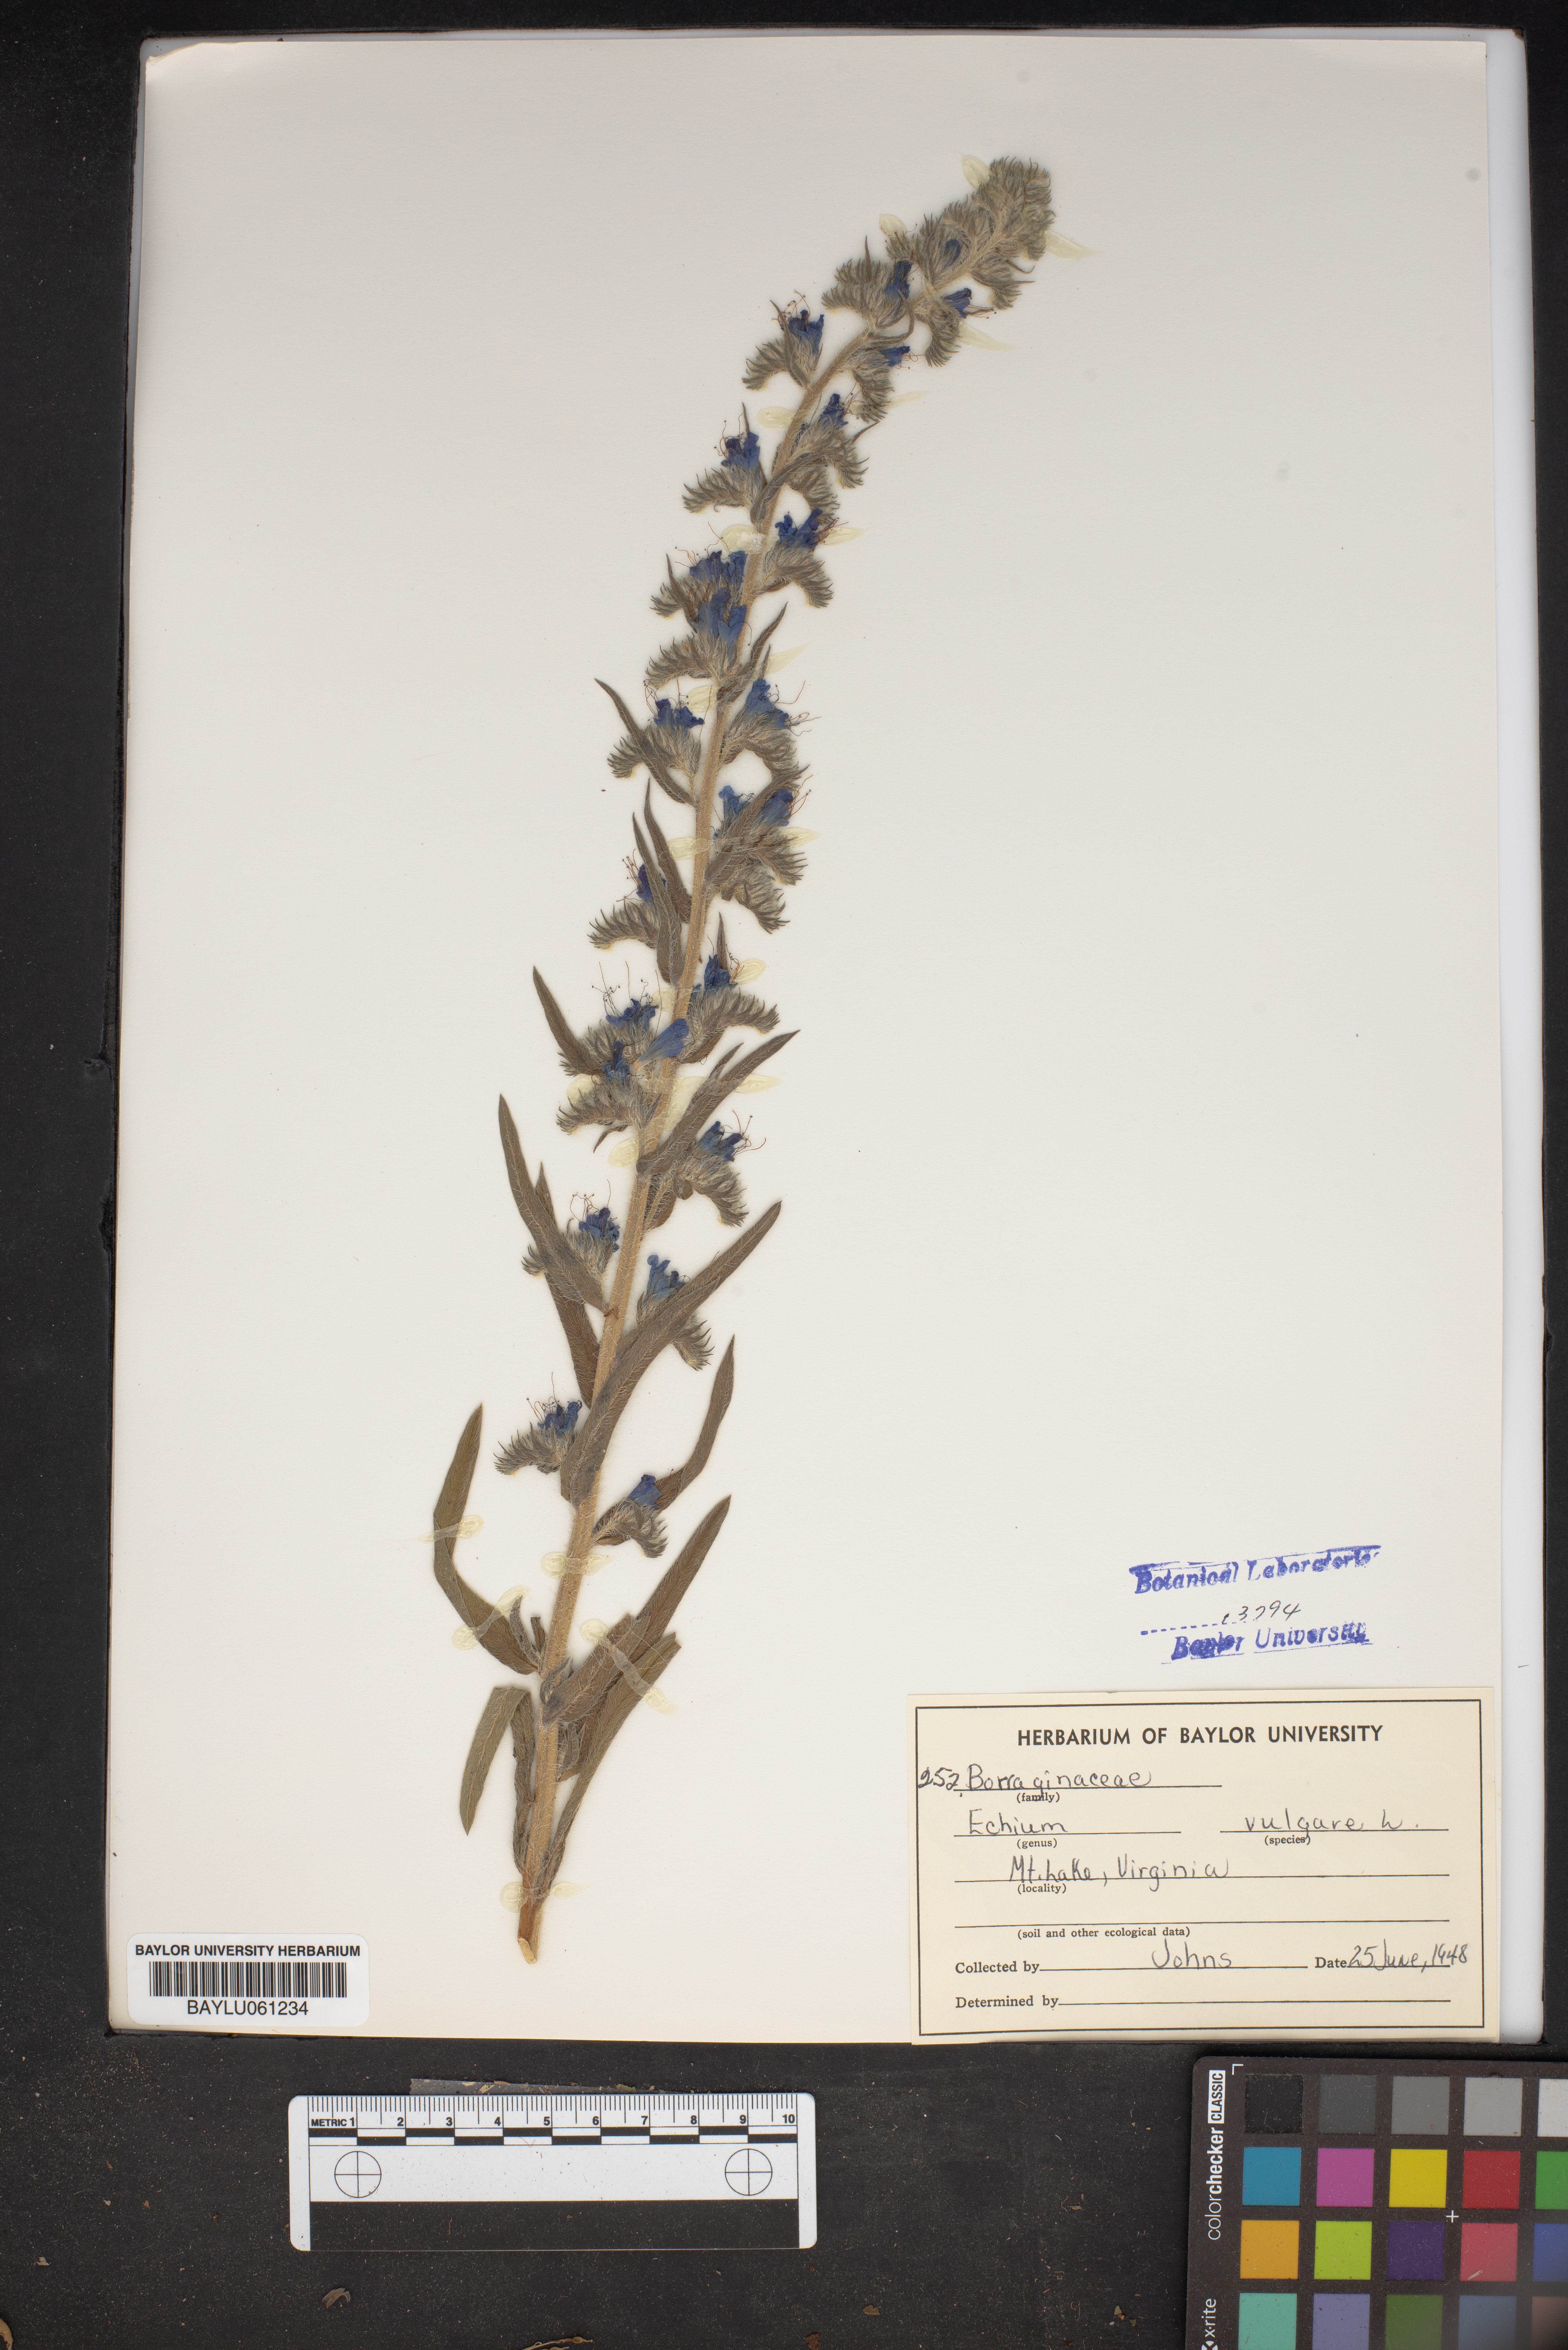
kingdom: Plantae
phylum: Tracheophyta
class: Magnoliopsida
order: Boraginales
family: Boraginaceae
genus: Echium
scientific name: Echium vulgare
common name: Common viper's bugloss
